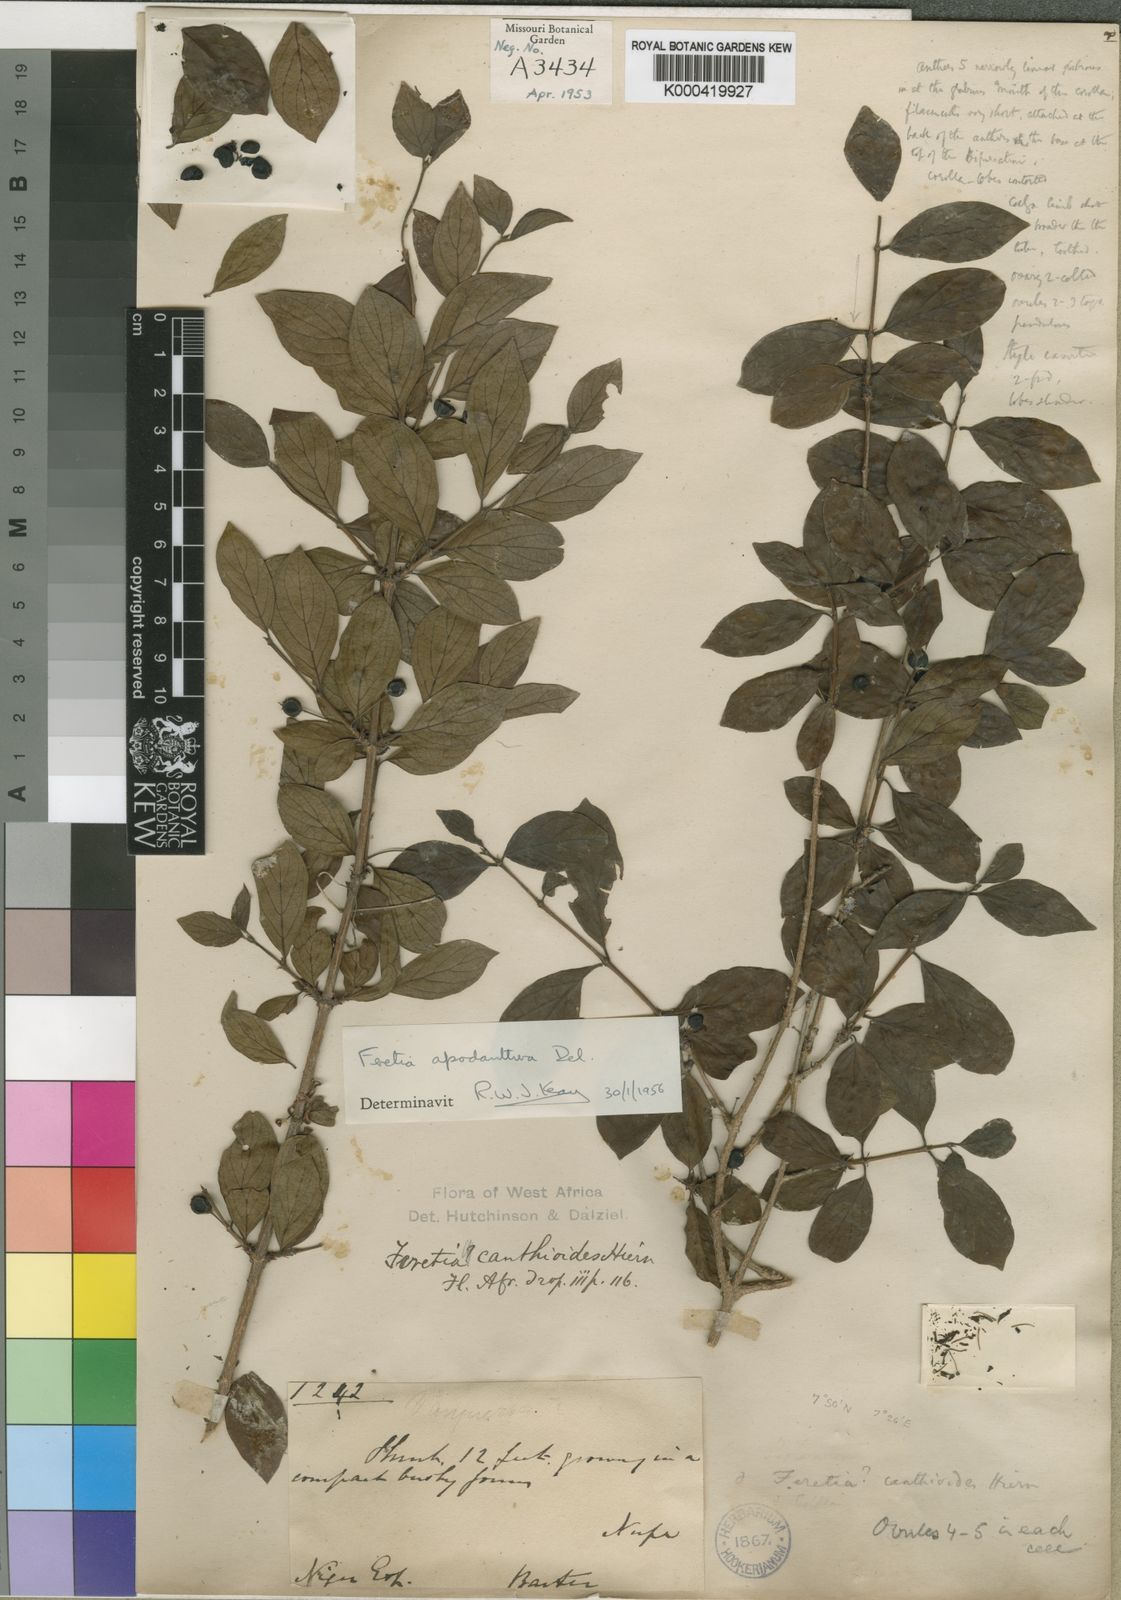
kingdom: Plantae
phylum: Tracheophyta
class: Magnoliopsida
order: Gentianales
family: Rubiaceae
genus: Feretia
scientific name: Feretia apodanthera
